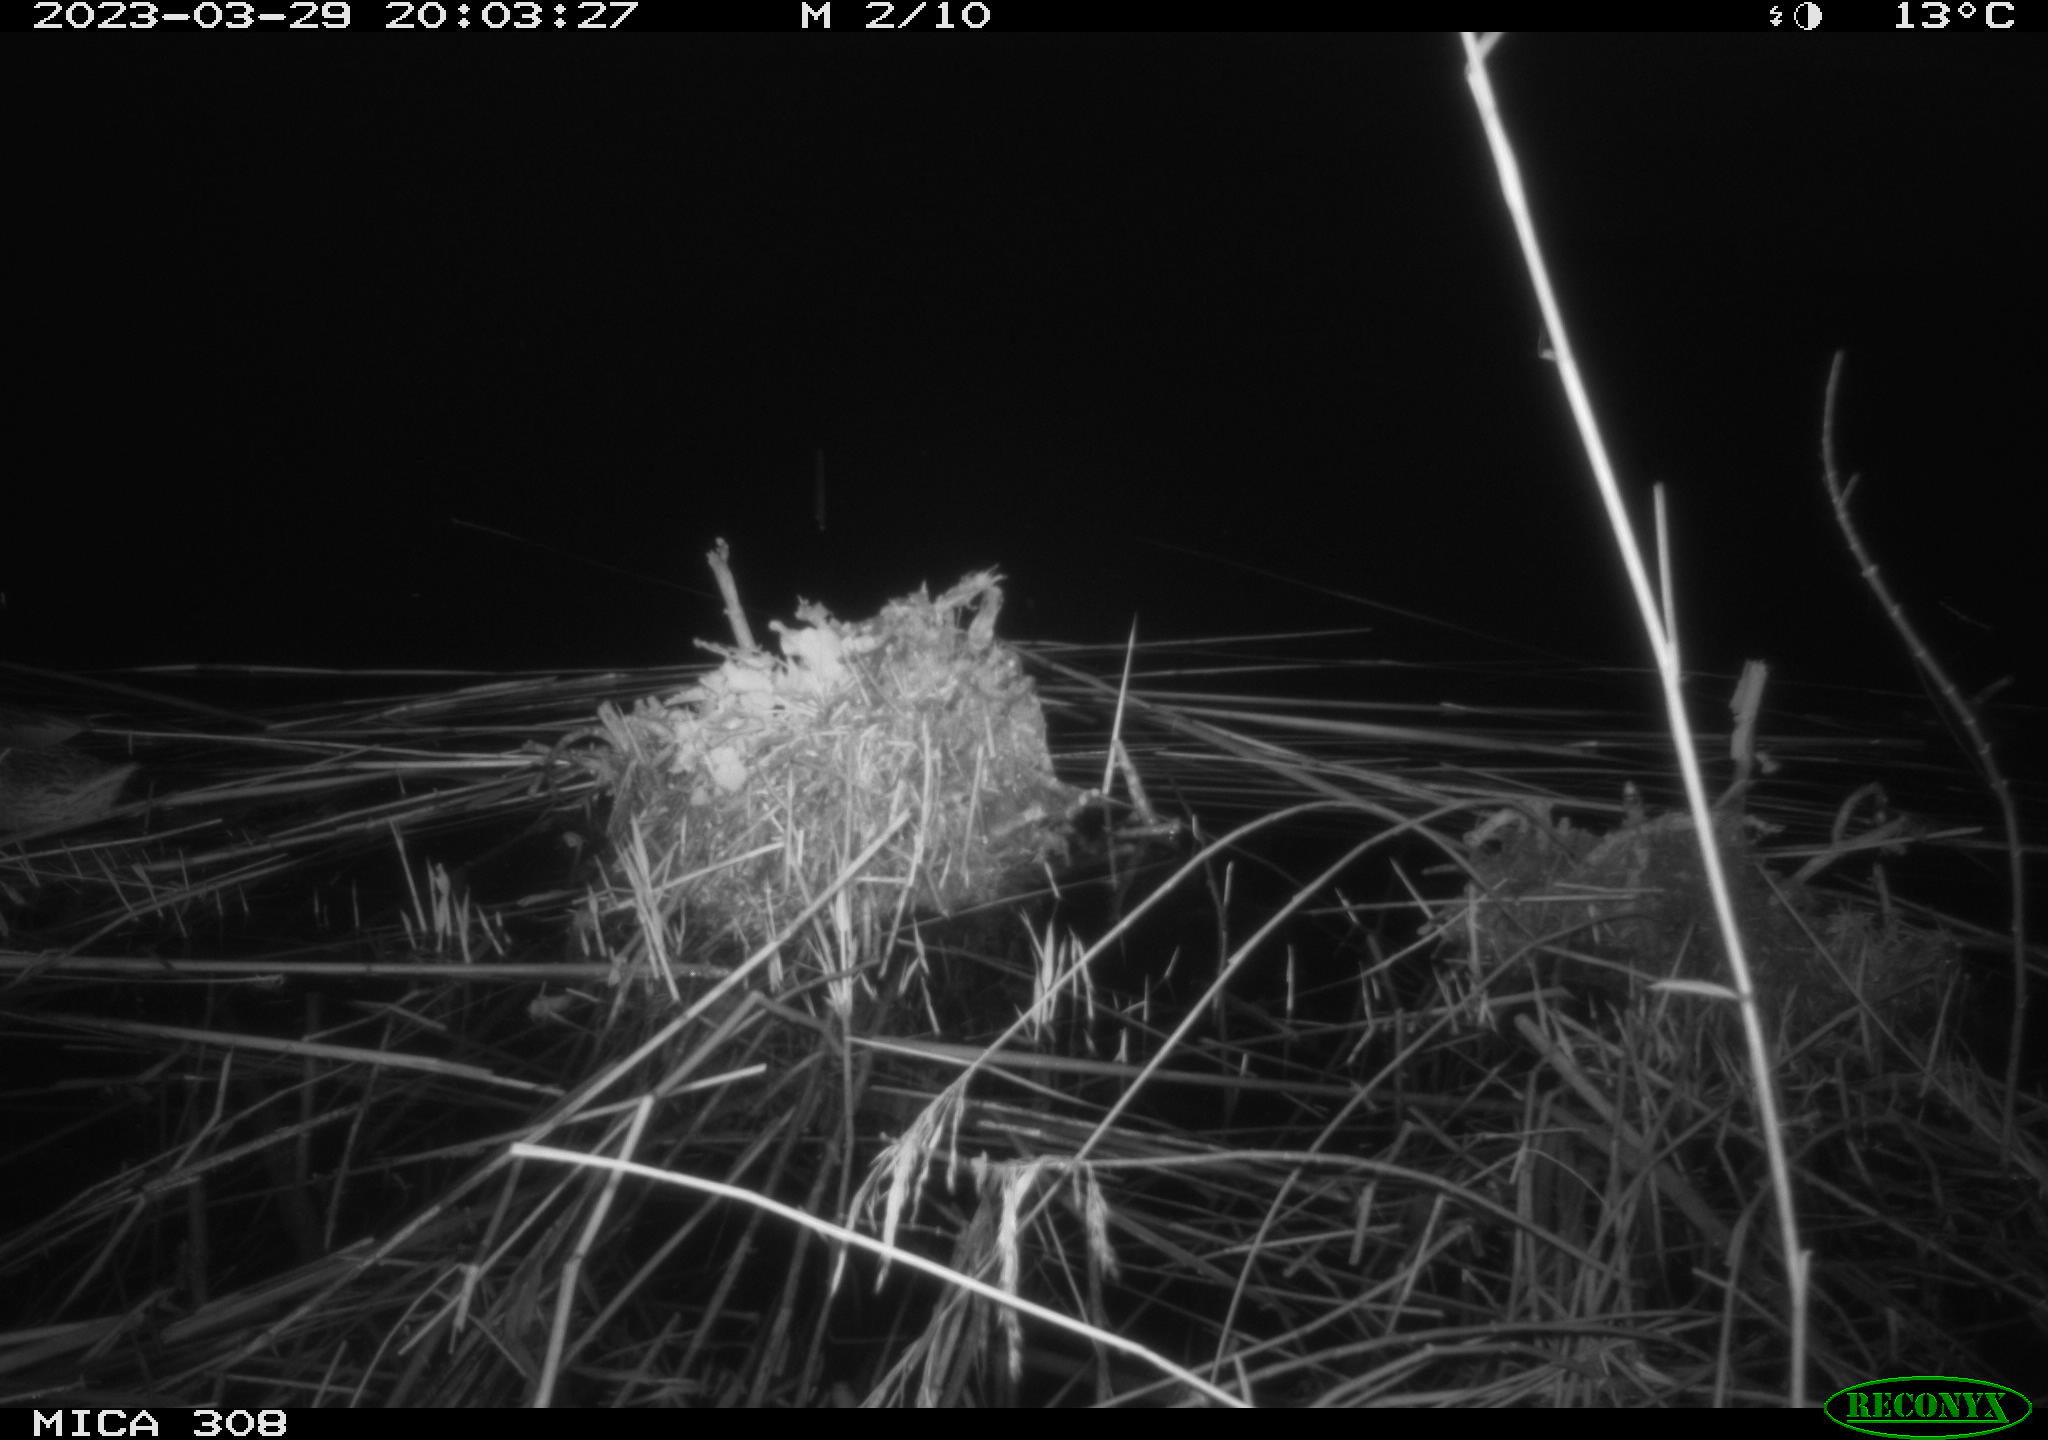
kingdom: Animalia
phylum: Chordata
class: Aves
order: Anseriformes
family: Anatidae
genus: Anas
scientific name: Anas
